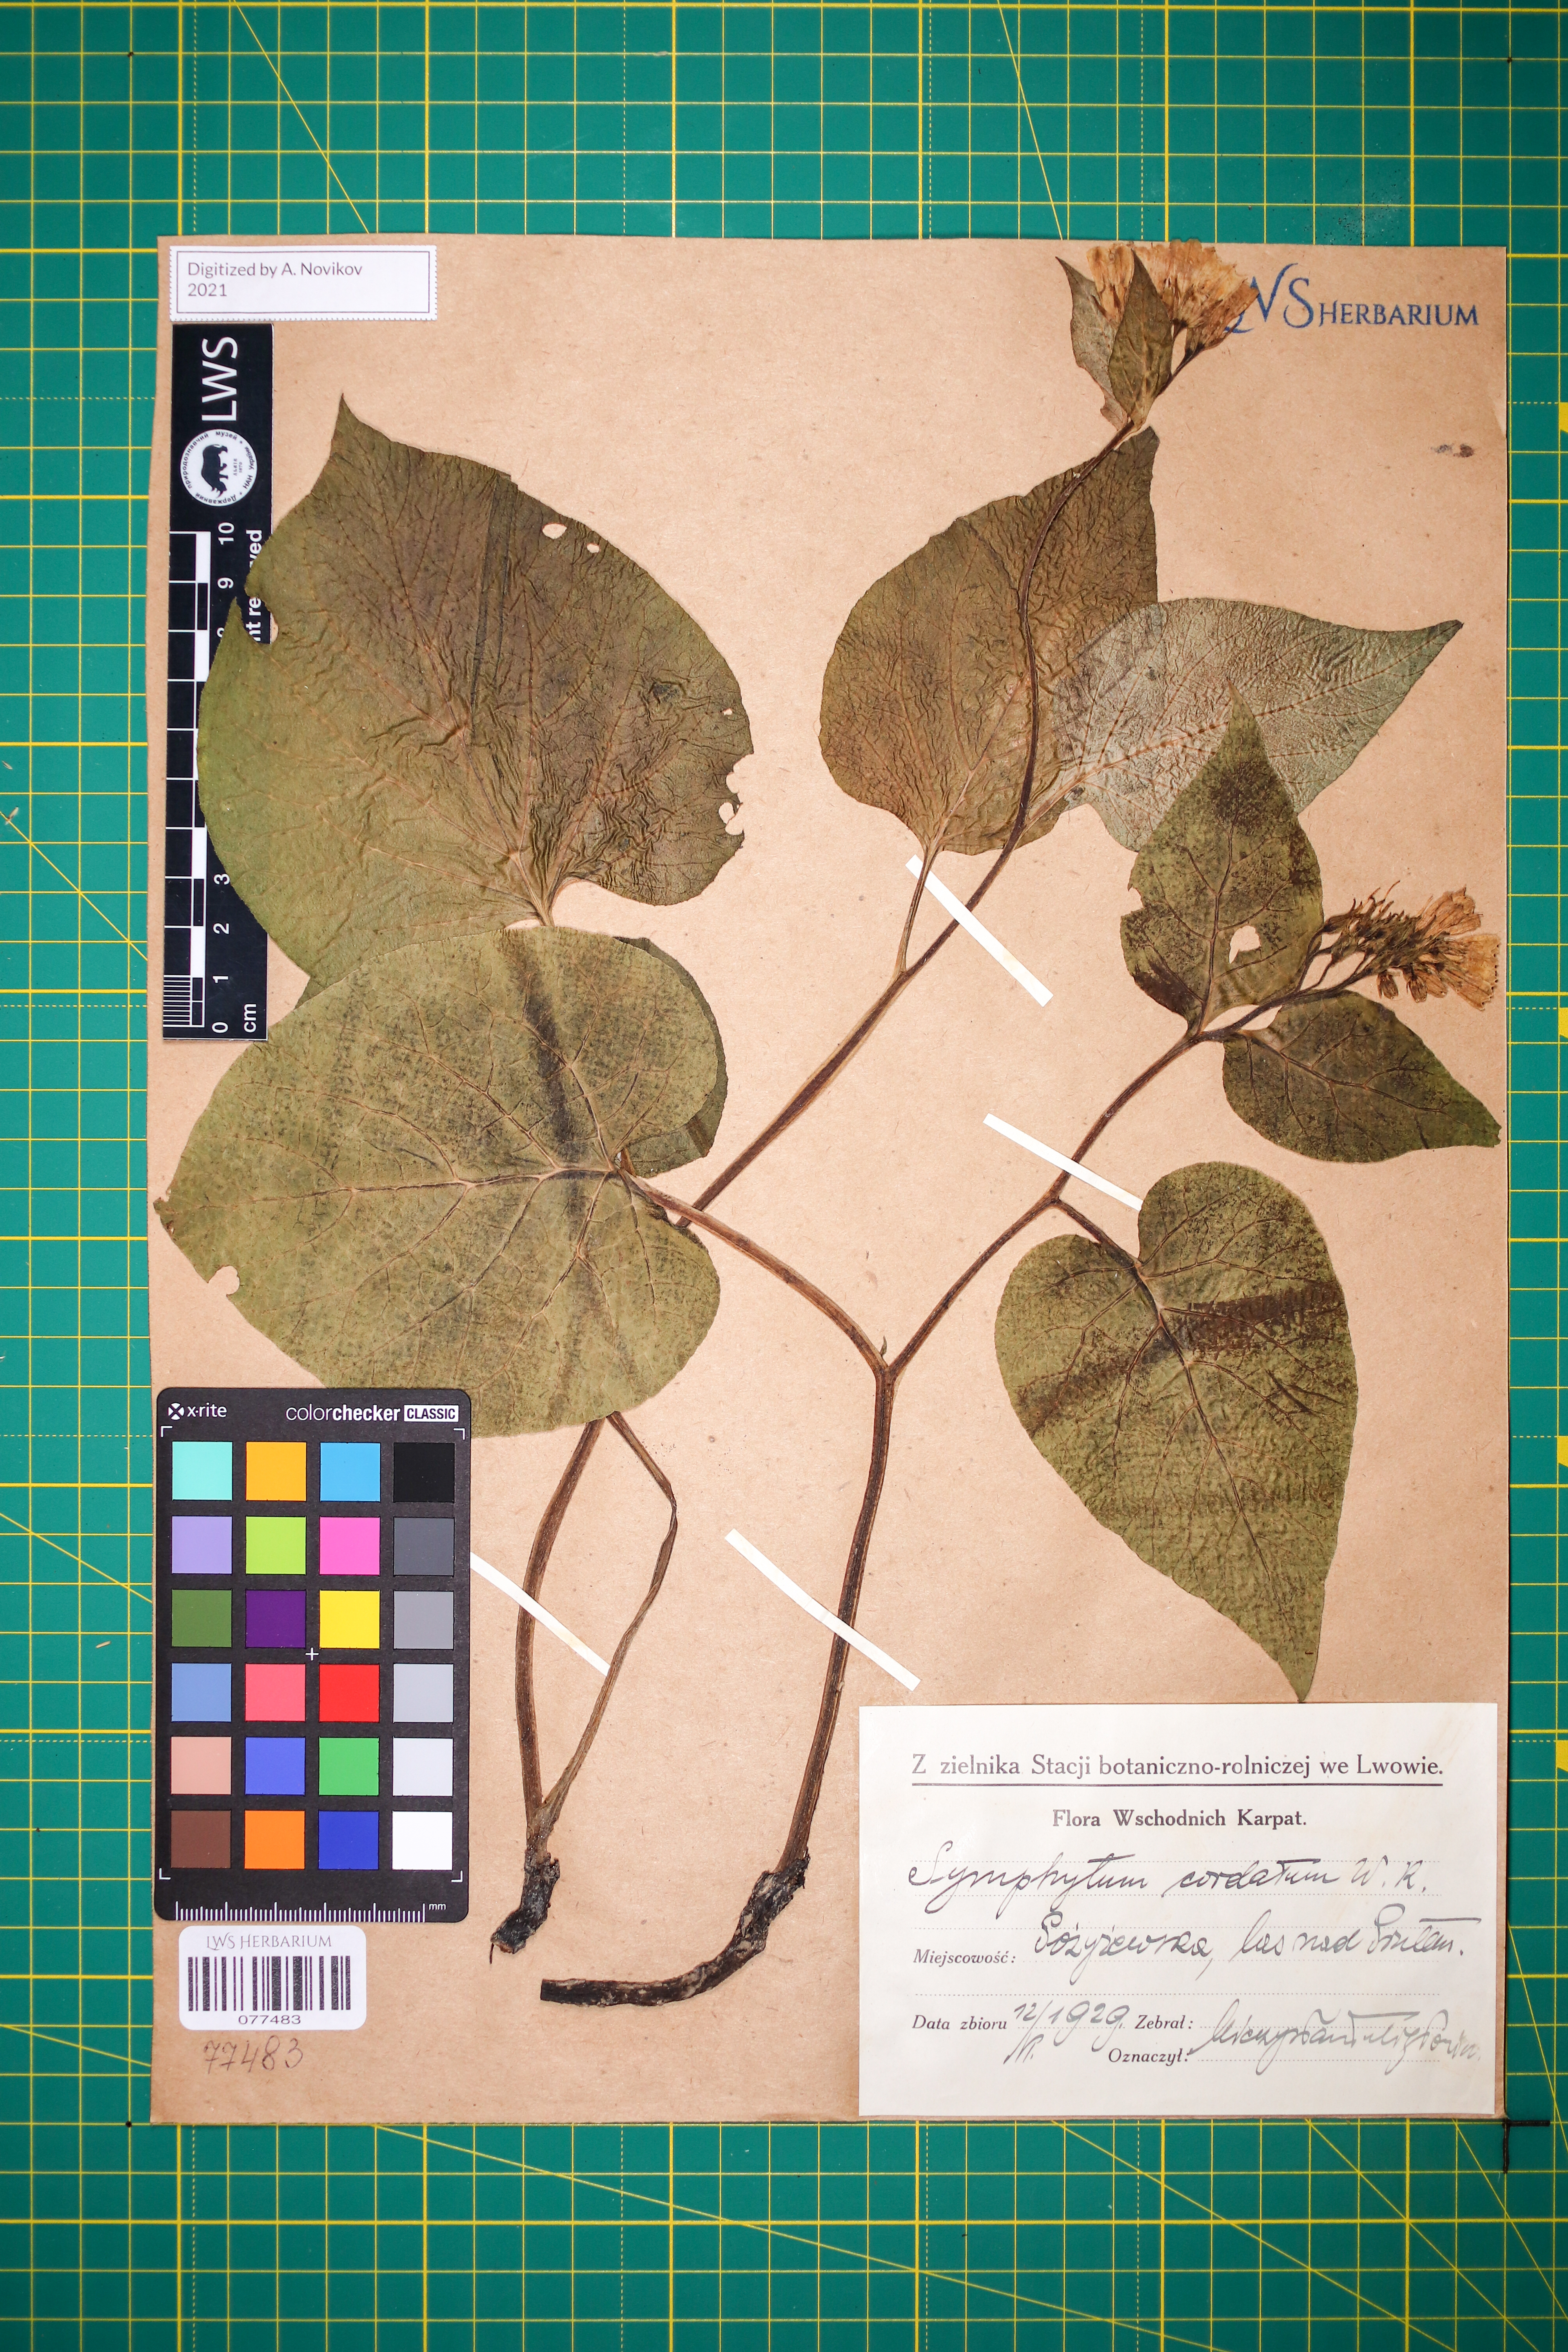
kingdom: Plantae
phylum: Tracheophyta
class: Magnoliopsida
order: Boraginales
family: Boraginaceae
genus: Symphytum
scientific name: Symphytum cordatum
